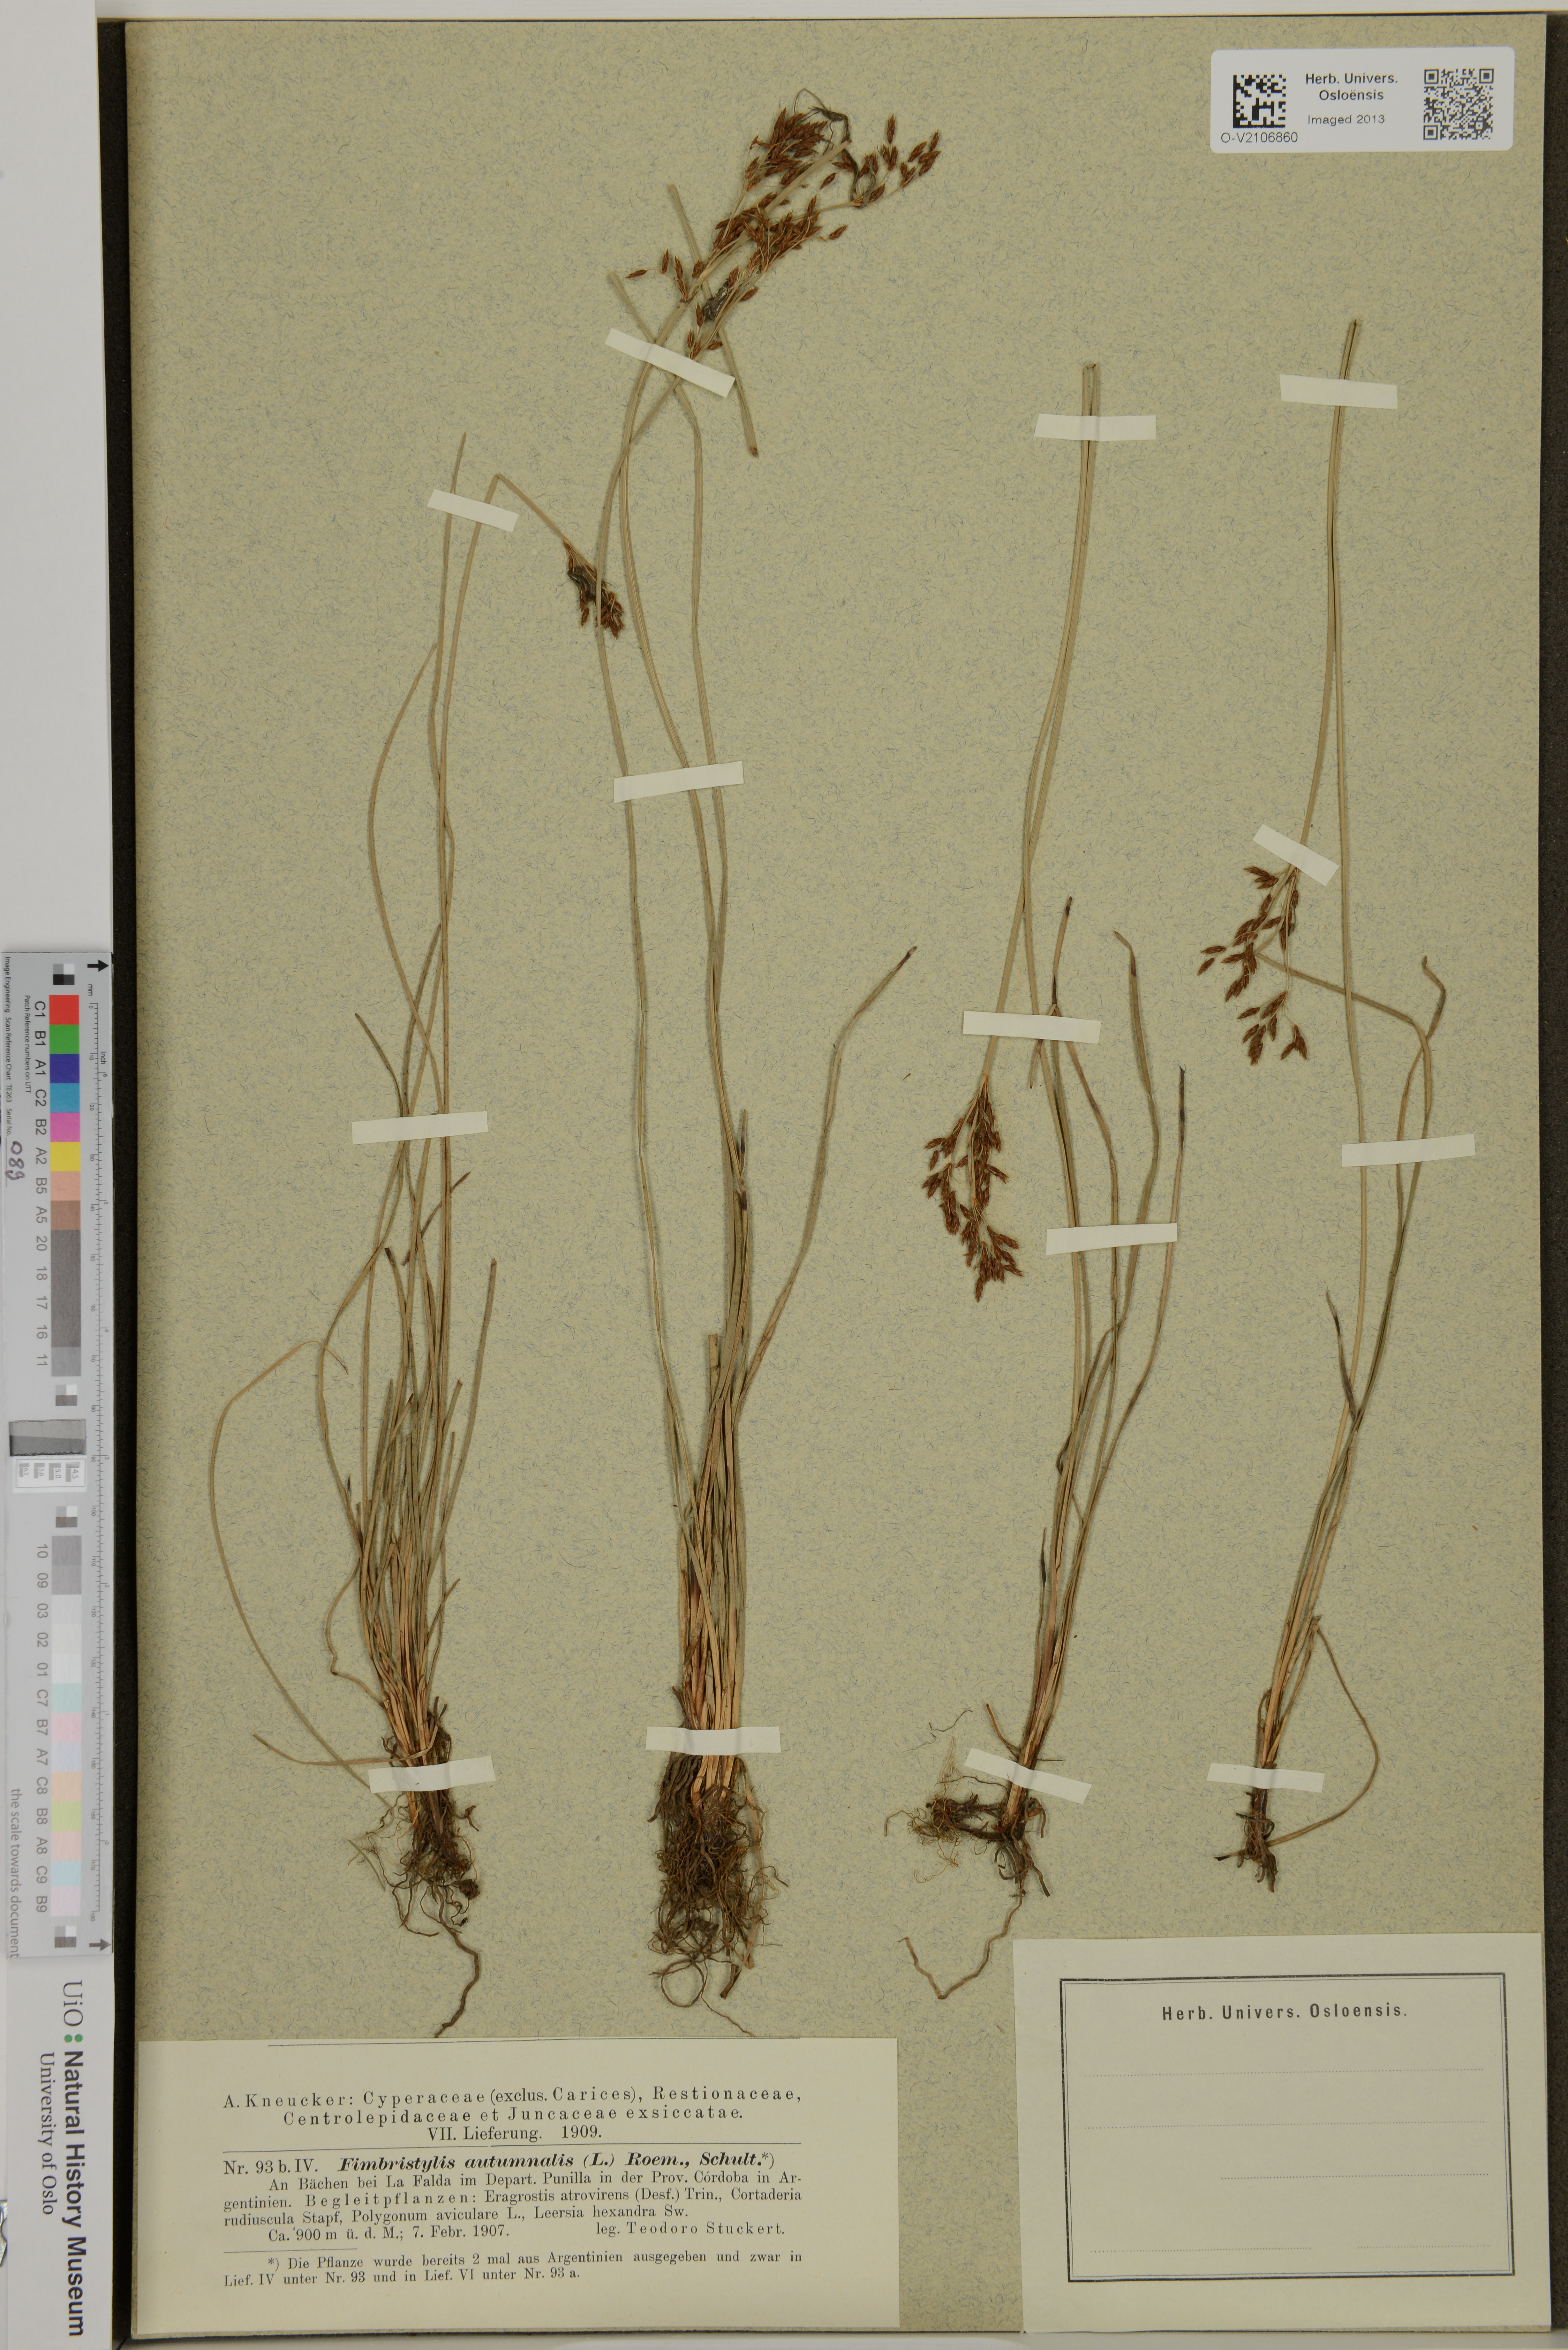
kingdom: Plantae
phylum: Tracheophyta
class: Liliopsida
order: Poales
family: Cyperaceae
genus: Fimbristylis
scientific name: Fimbristylis autumnalis
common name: Slender fimbristylis
